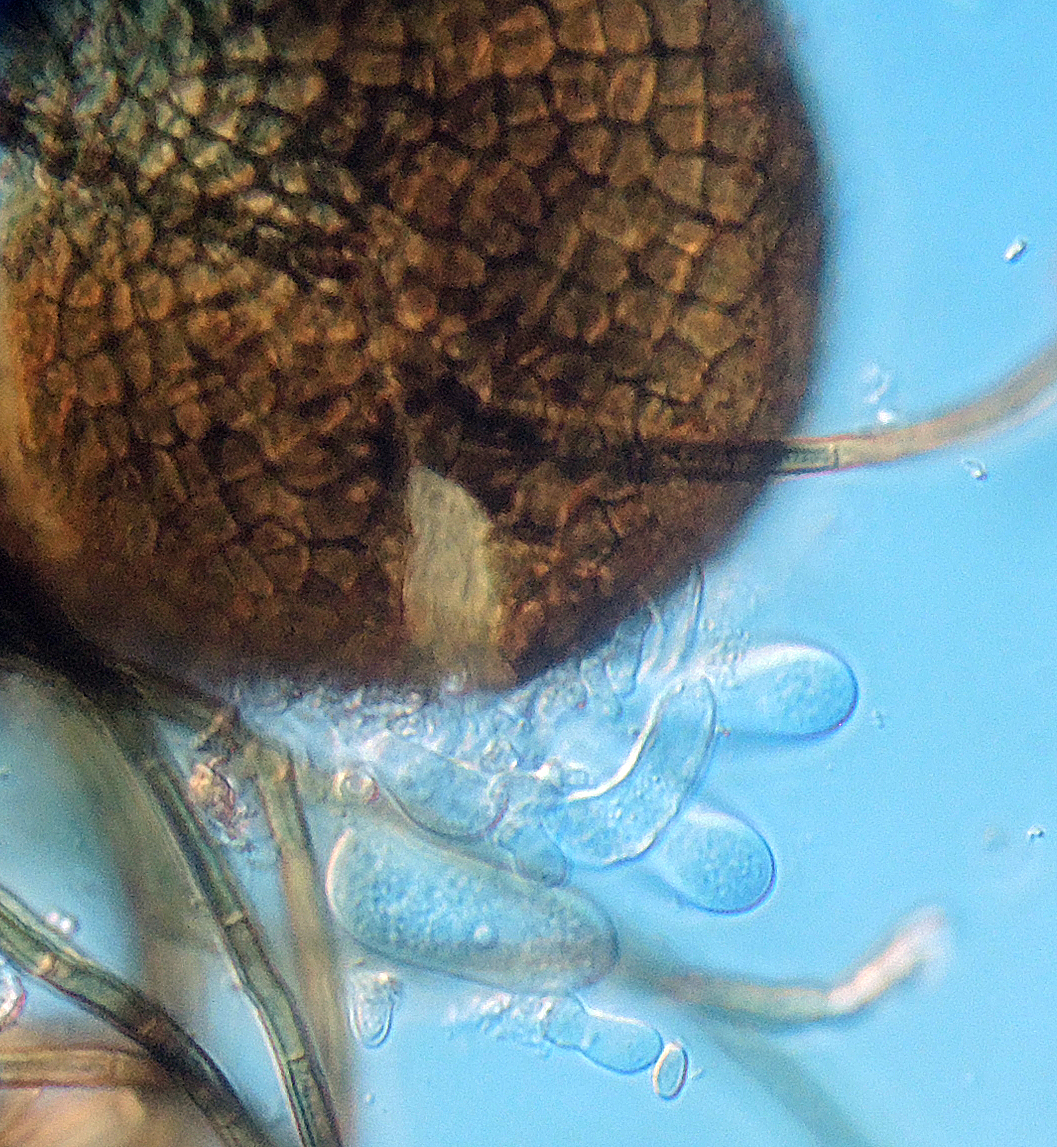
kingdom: Fungi
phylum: Ascomycota
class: Dothideomycetes
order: Venturiales
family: Venturiaceae
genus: Lasiobotrys
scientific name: Lasiobotrys lonicerae
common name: gedeblad-kuglebærer
